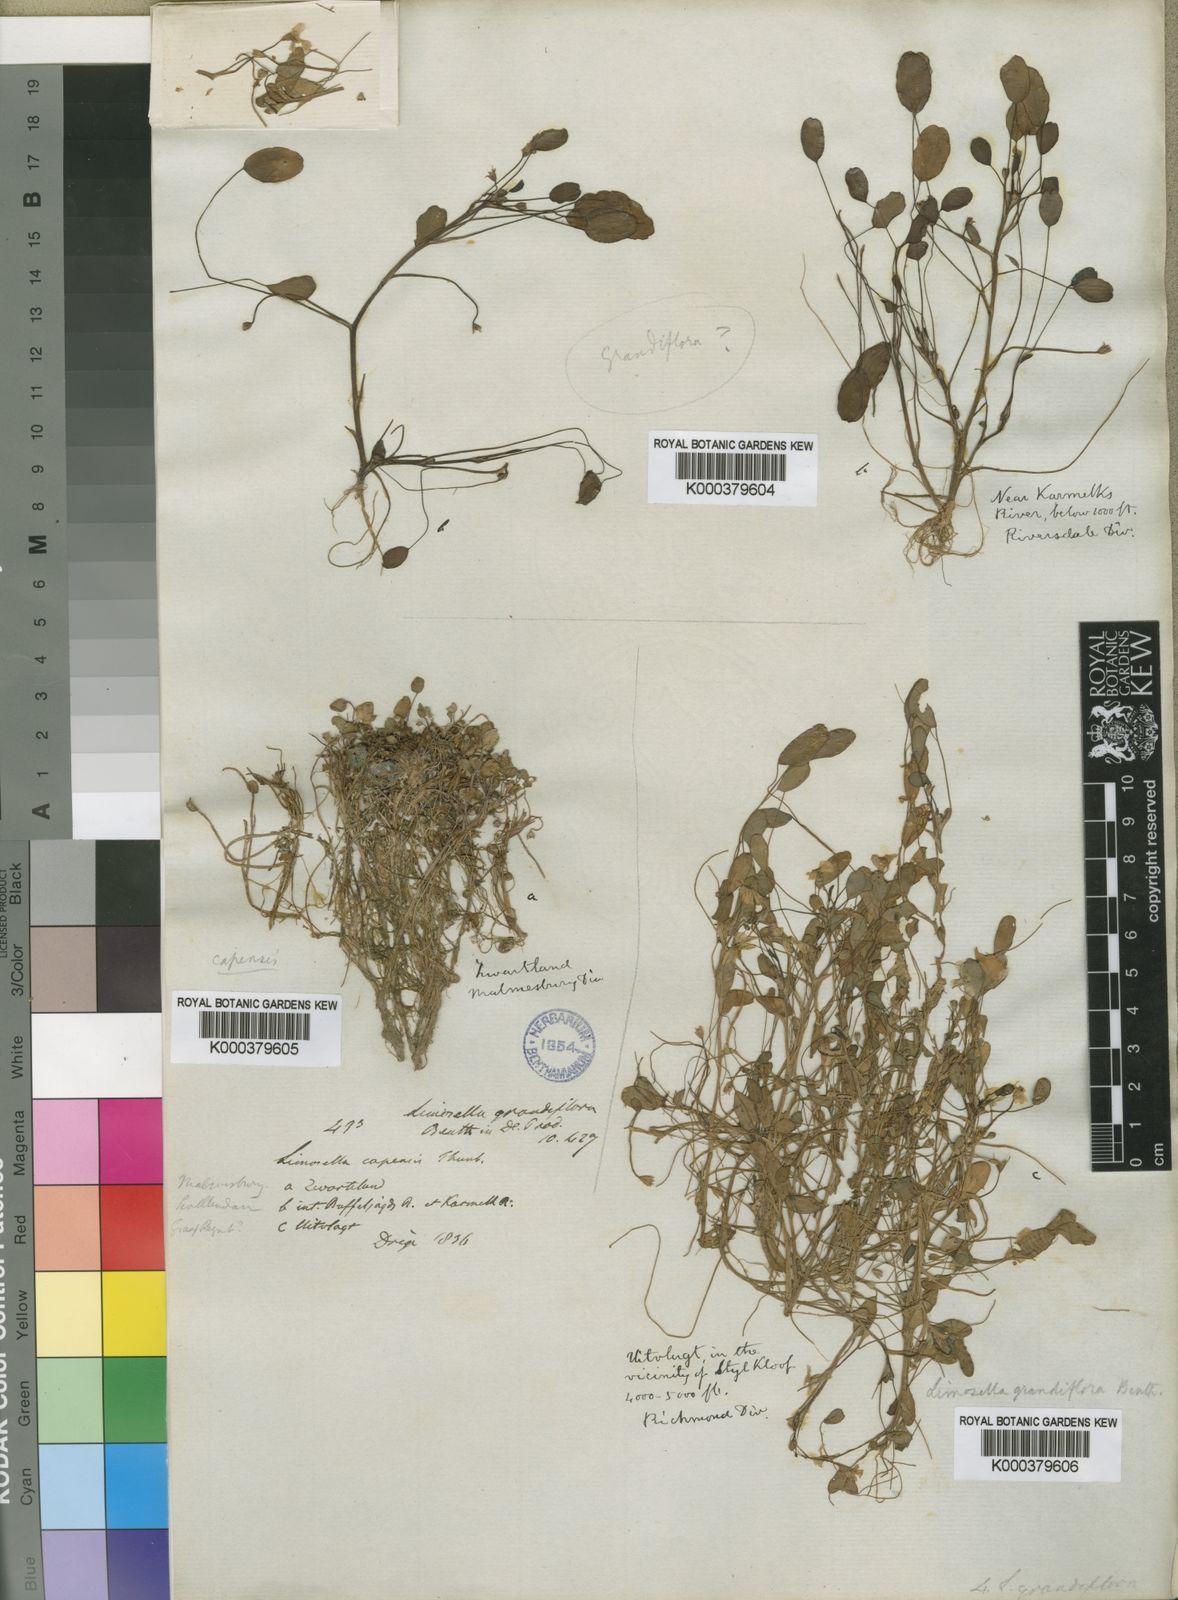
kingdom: Plantae
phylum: Tracheophyta
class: Magnoliopsida
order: Lamiales
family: Scrophulariaceae
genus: Limosella
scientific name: Limosella grandiflora
